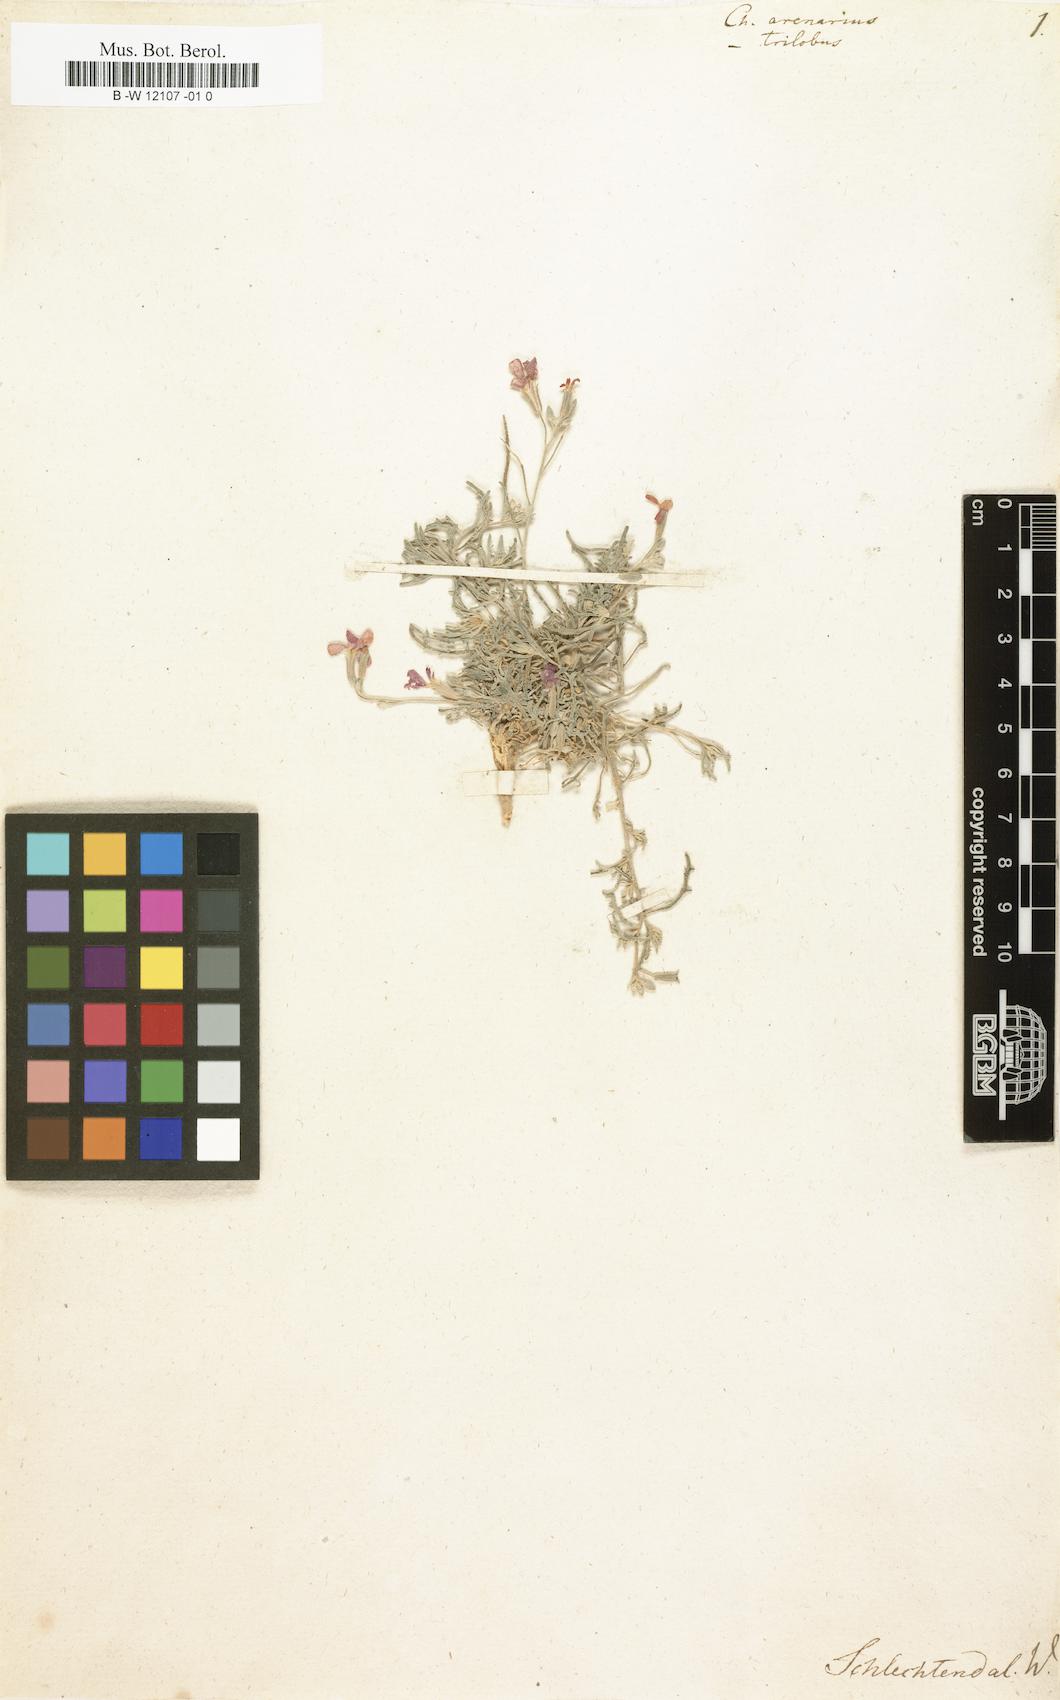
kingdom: Plantae
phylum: Tracheophyta
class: Magnoliopsida
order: Brassicales
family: Brassicaceae
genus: Matthiola
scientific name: Matthiola fruticulosa
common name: Sad stock
